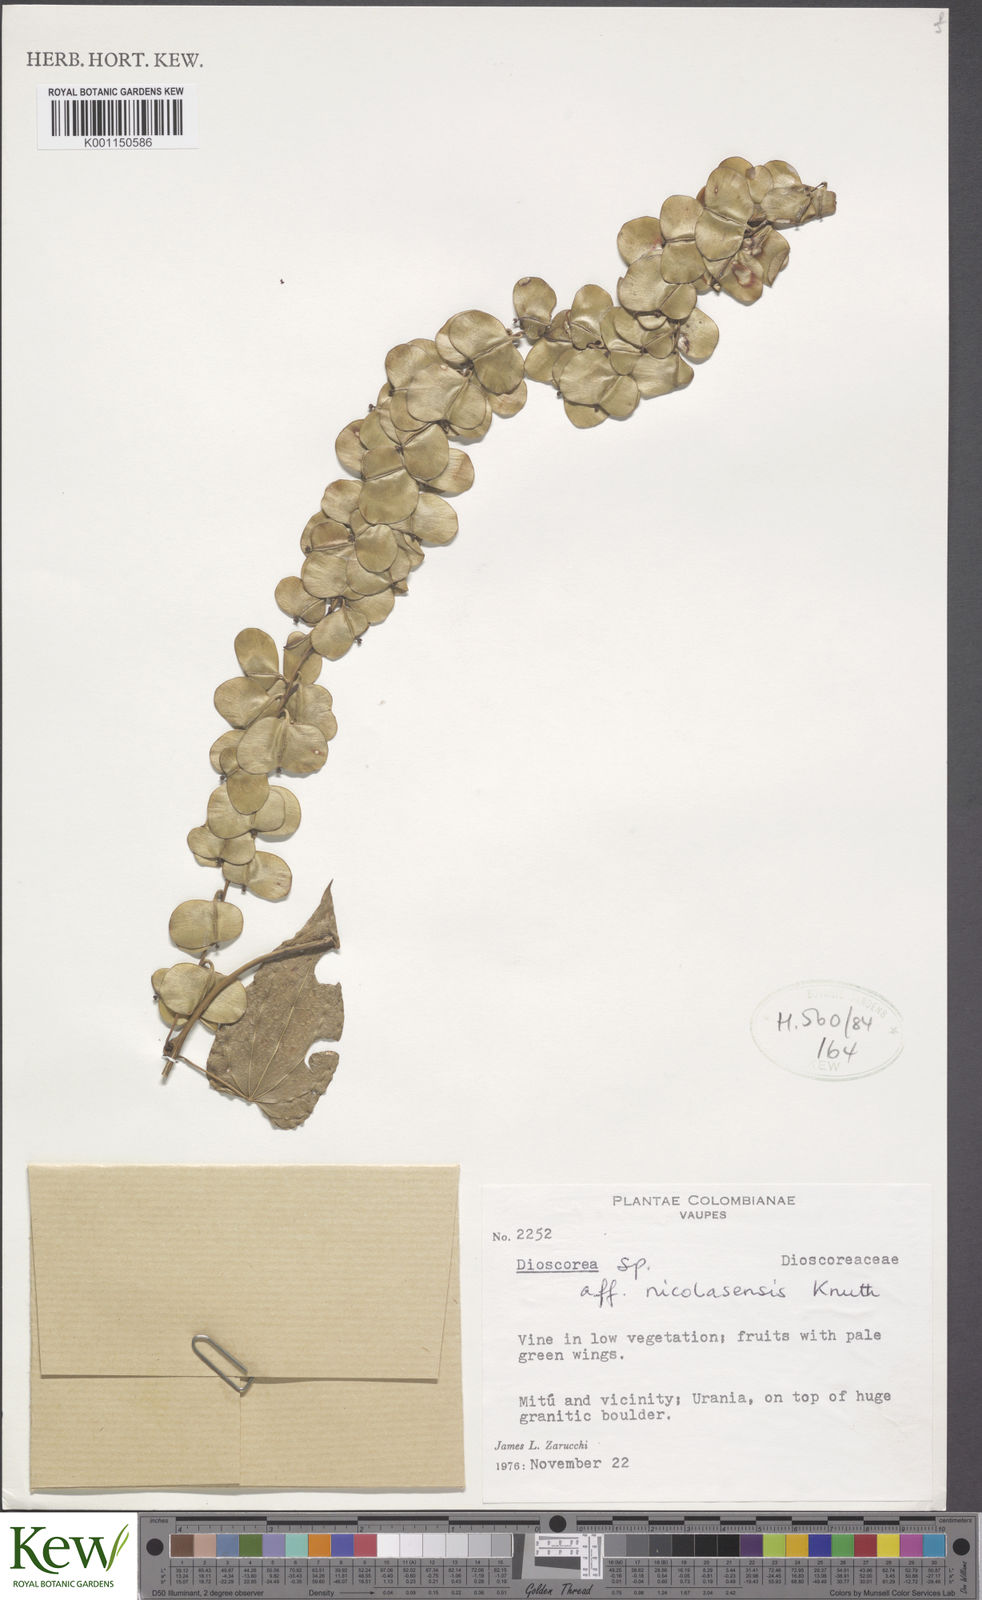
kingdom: Plantae
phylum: Tracheophyta
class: Liliopsida
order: Dioscoreales
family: Dioscoreaceae
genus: Dioscorea
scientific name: Dioscorea nicolasensis
